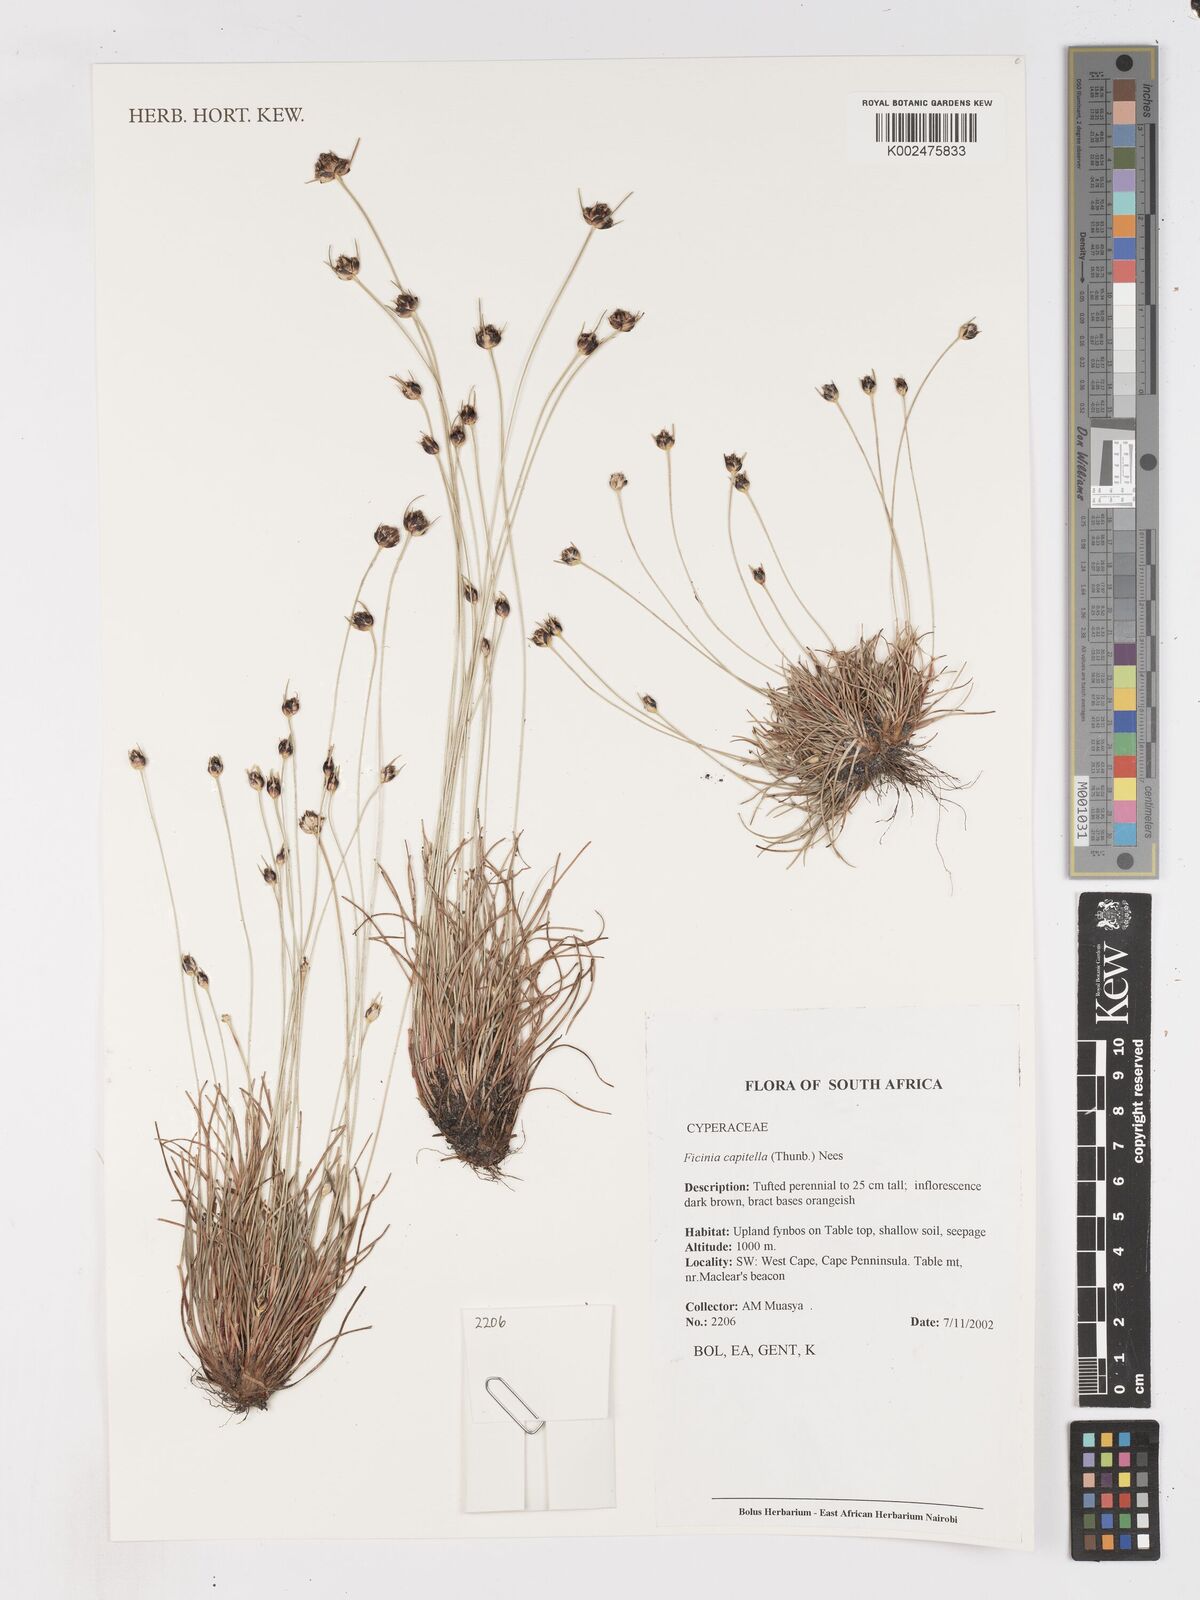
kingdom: Plantae
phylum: Tracheophyta
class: Liliopsida
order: Poales
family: Cyperaceae
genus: Ficinia
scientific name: Ficinia capitella
